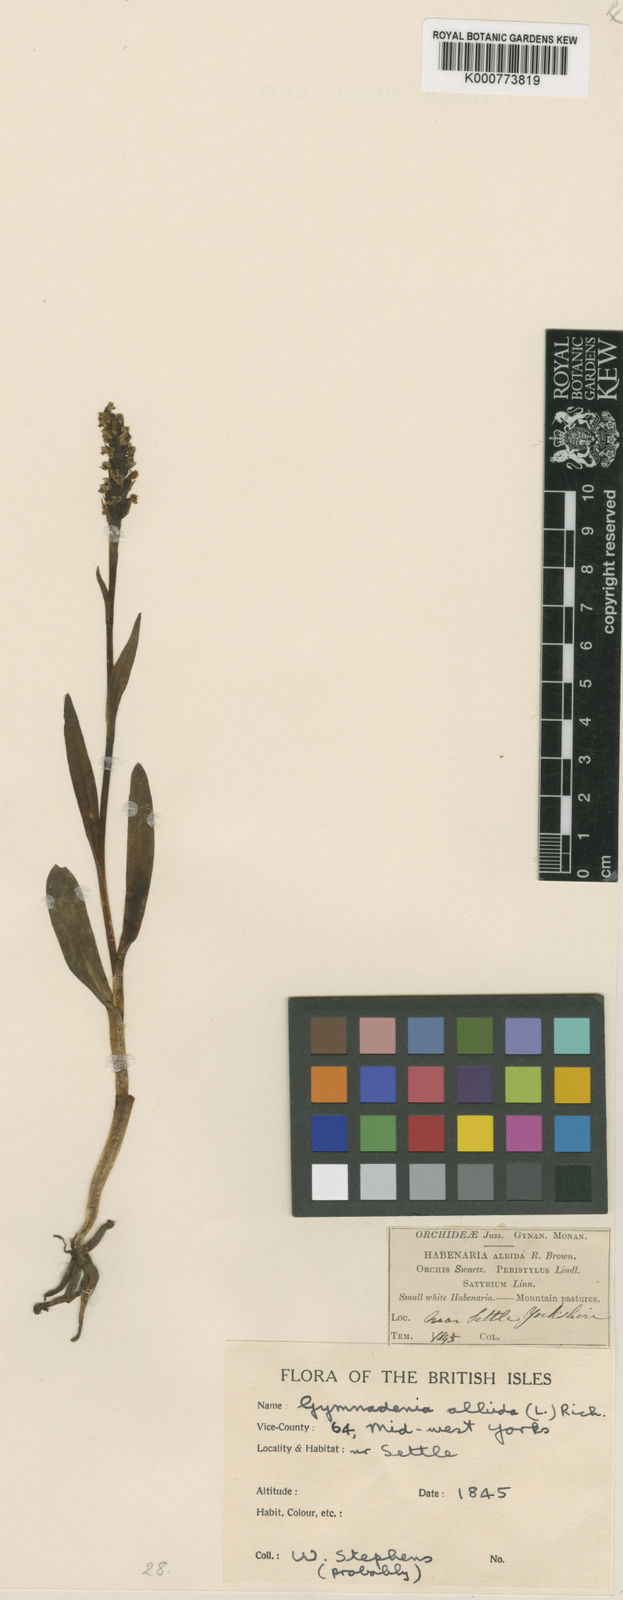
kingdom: Plantae
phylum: Tracheophyta
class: Liliopsida
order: Asparagales
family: Orchidaceae
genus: Pseudorchis
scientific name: Pseudorchis
